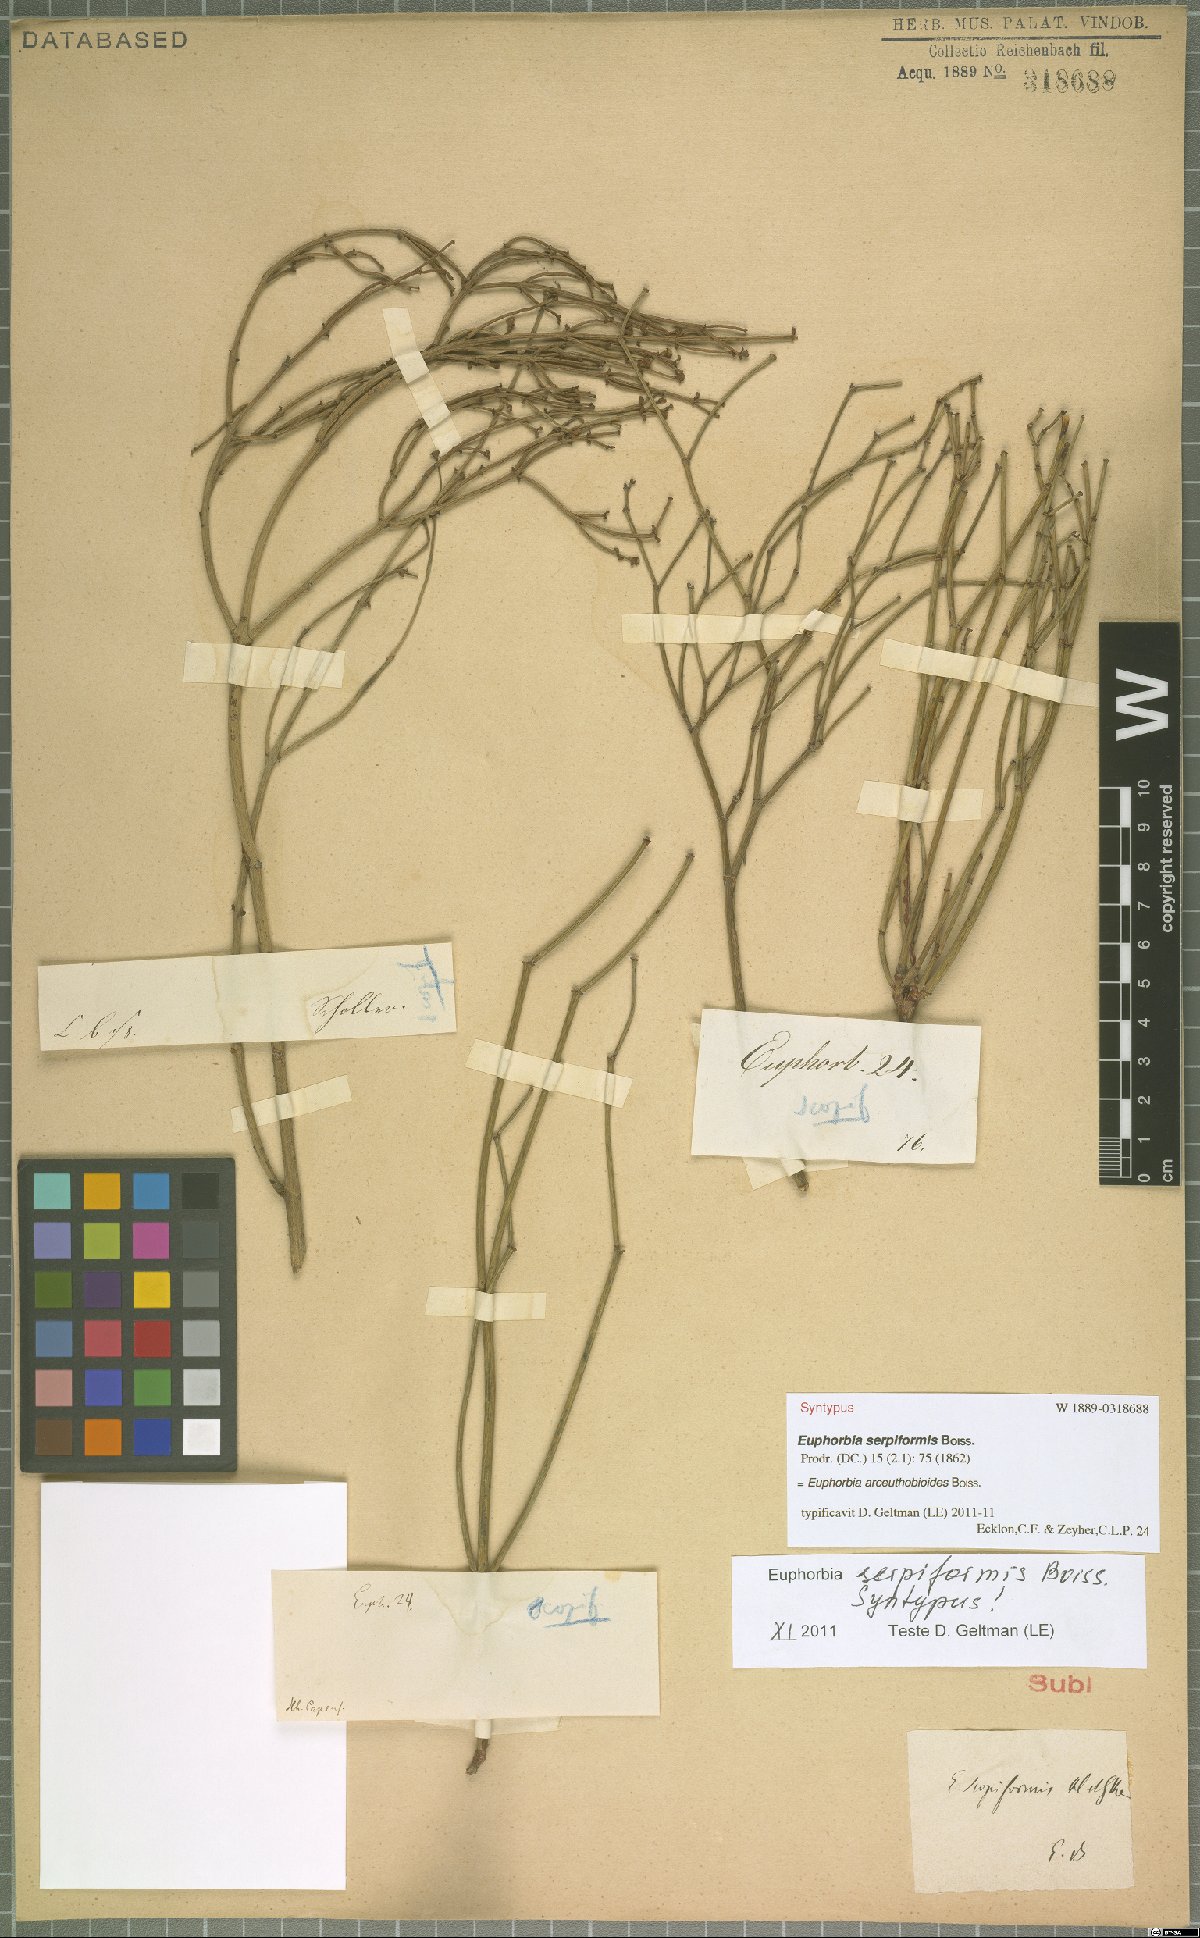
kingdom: Plantae
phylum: Tracheophyta
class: Magnoliopsida
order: Malpighiales
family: Euphorbiaceae
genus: Euphorbia
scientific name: Euphorbia arceuthobioides
